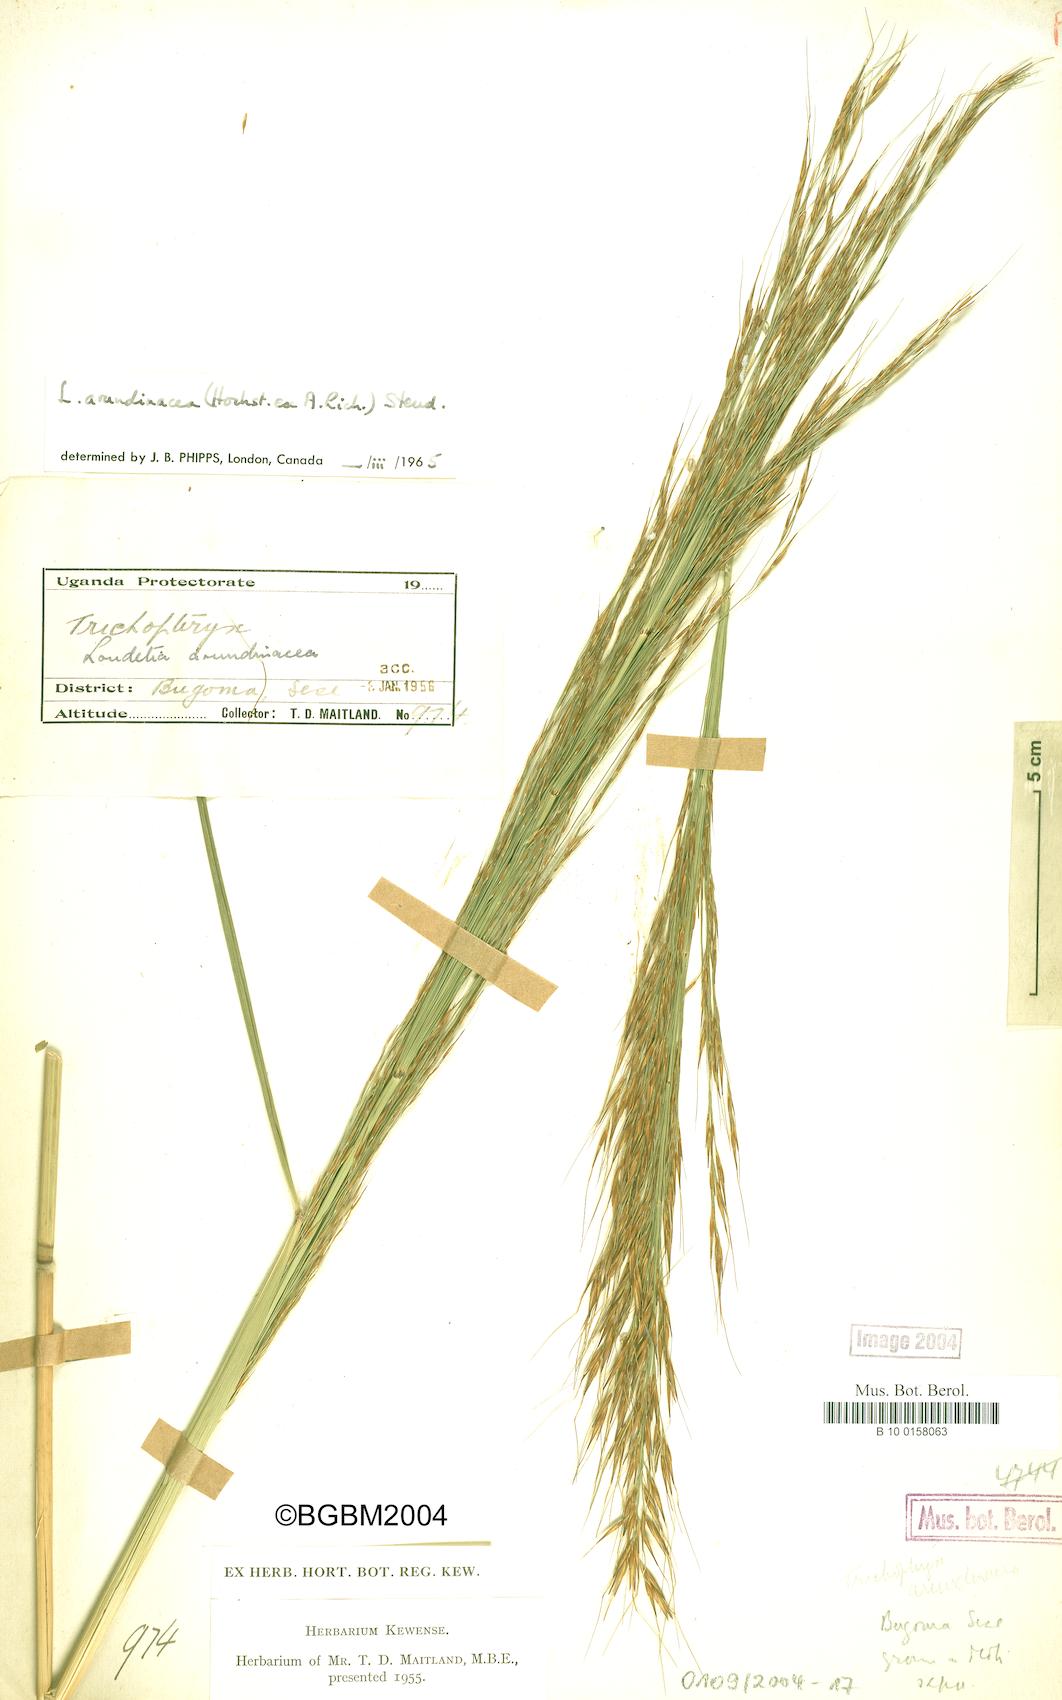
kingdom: Plantae
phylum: Tracheophyta
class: Liliopsida
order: Poales
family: Poaceae
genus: Loudetia
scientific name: Loudetia arundinacea
